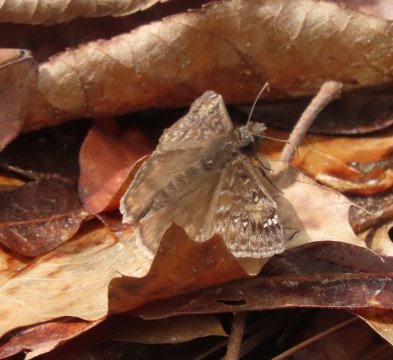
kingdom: Animalia
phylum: Arthropoda
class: Insecta
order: Lepidoptera
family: Hesperiidae
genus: Gesta
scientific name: Gesta
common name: Juvenal's Duskywing
